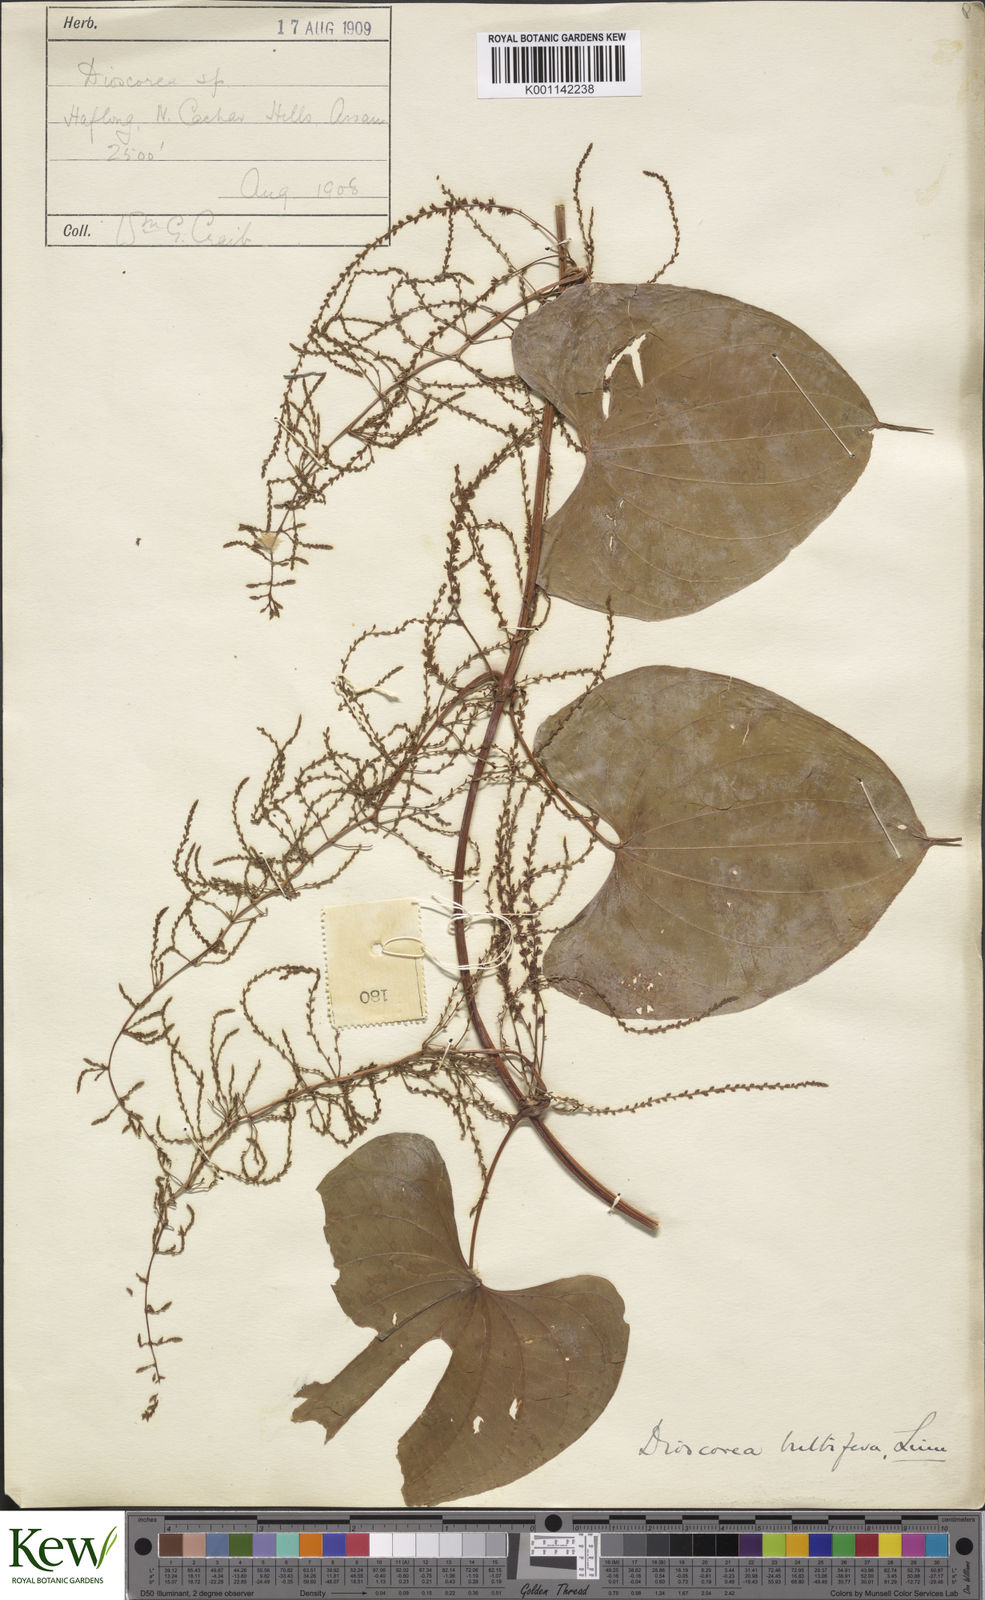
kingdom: Plantae
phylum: Tracheophyta
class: Liliopsida
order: Dioscoreales
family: Dioscoreaceae
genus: Dioscorea
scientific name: Dioscorea bulbifera
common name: Air yam
